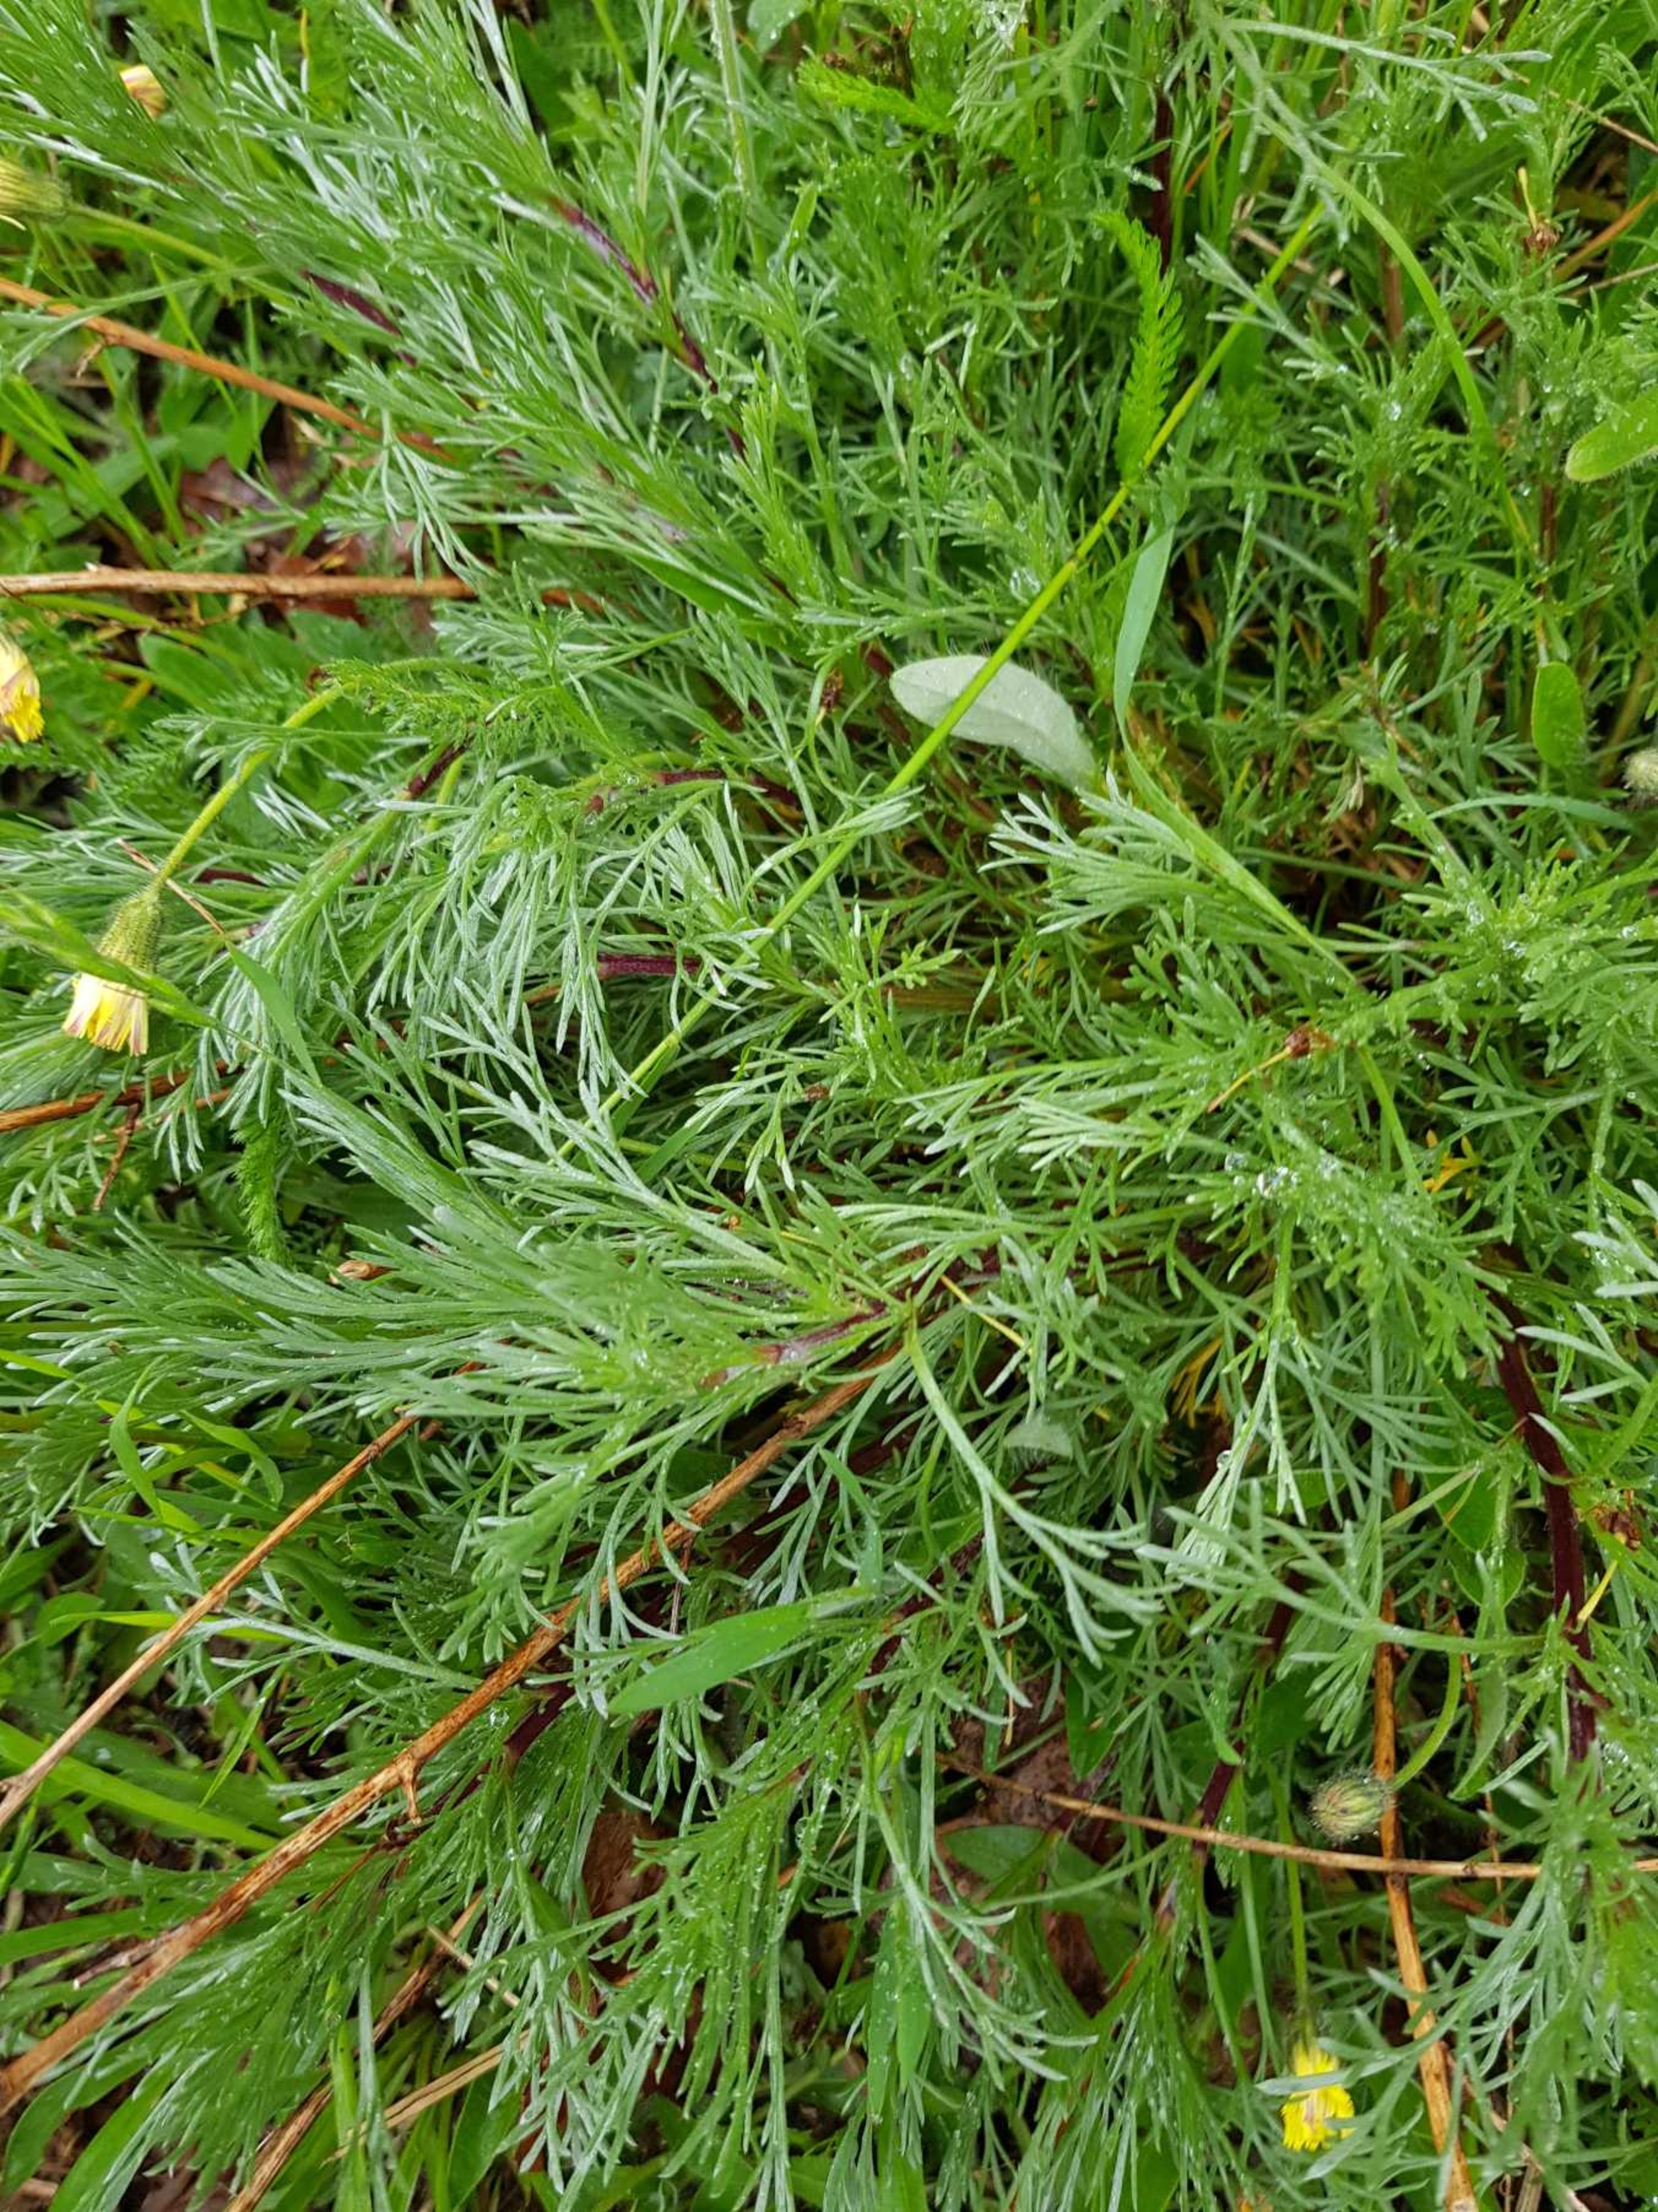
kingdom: Plantae
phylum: Tracheophyta
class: Magnoliopsida
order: Asterales
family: Asteraceae
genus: Artemisia
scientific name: Artemisia campestris
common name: Mark-bynke
